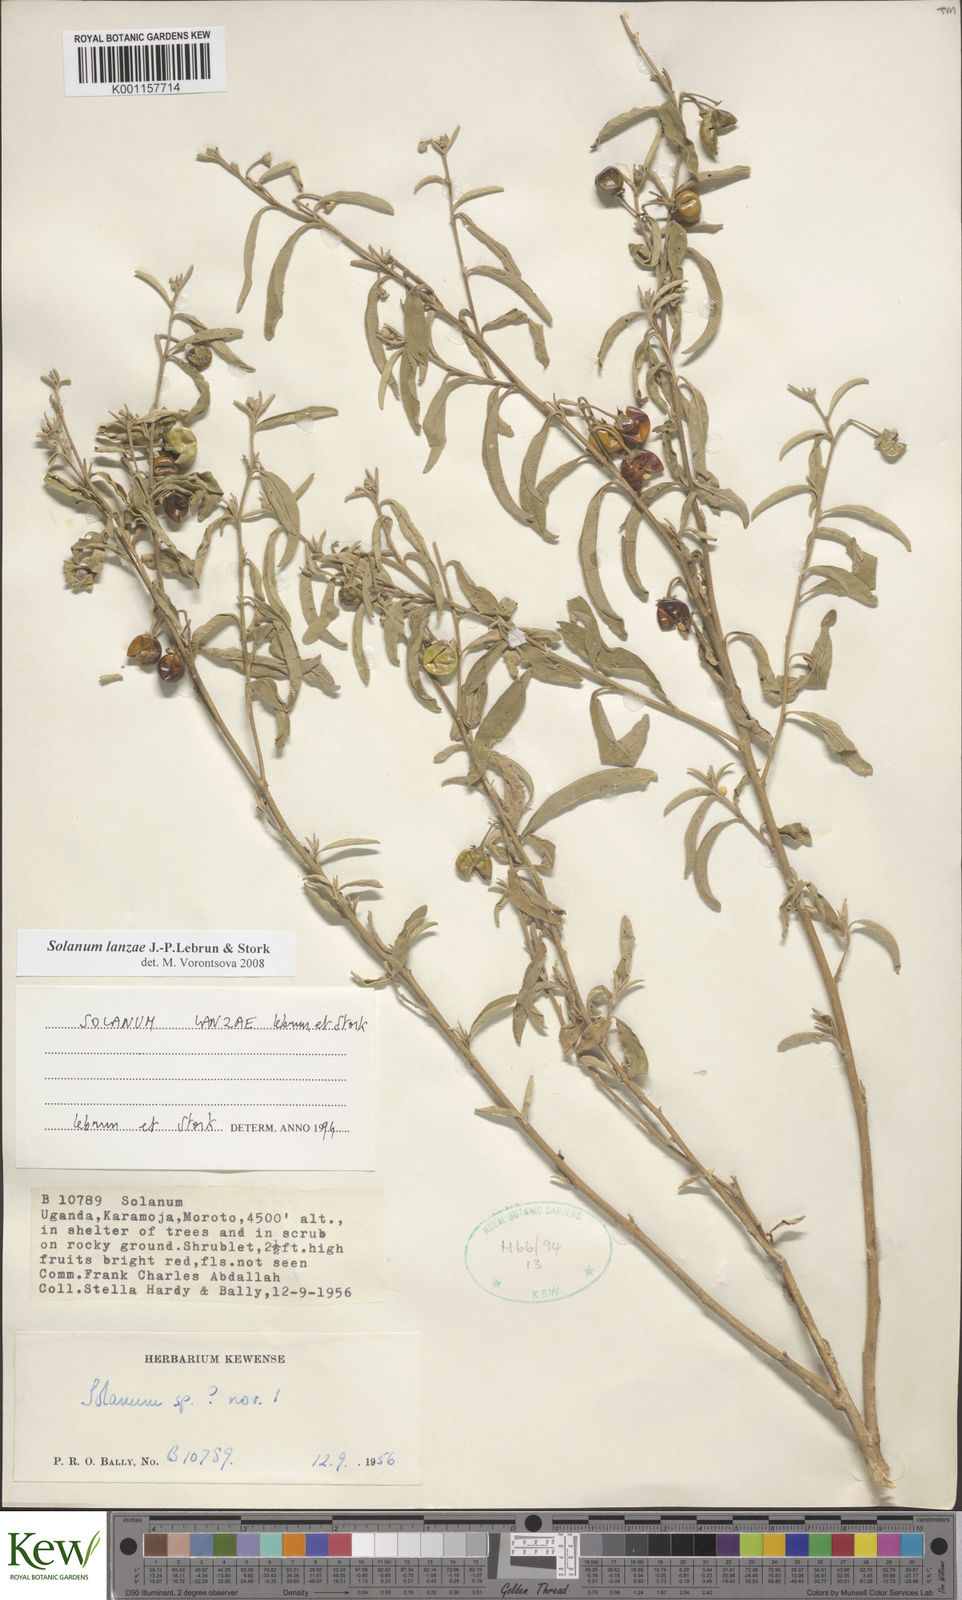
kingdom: Plantae
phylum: Tracheophyta
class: Magnoliopsida
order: Solanales
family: Solanaceae
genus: Solanum
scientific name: Solanum lanzae
